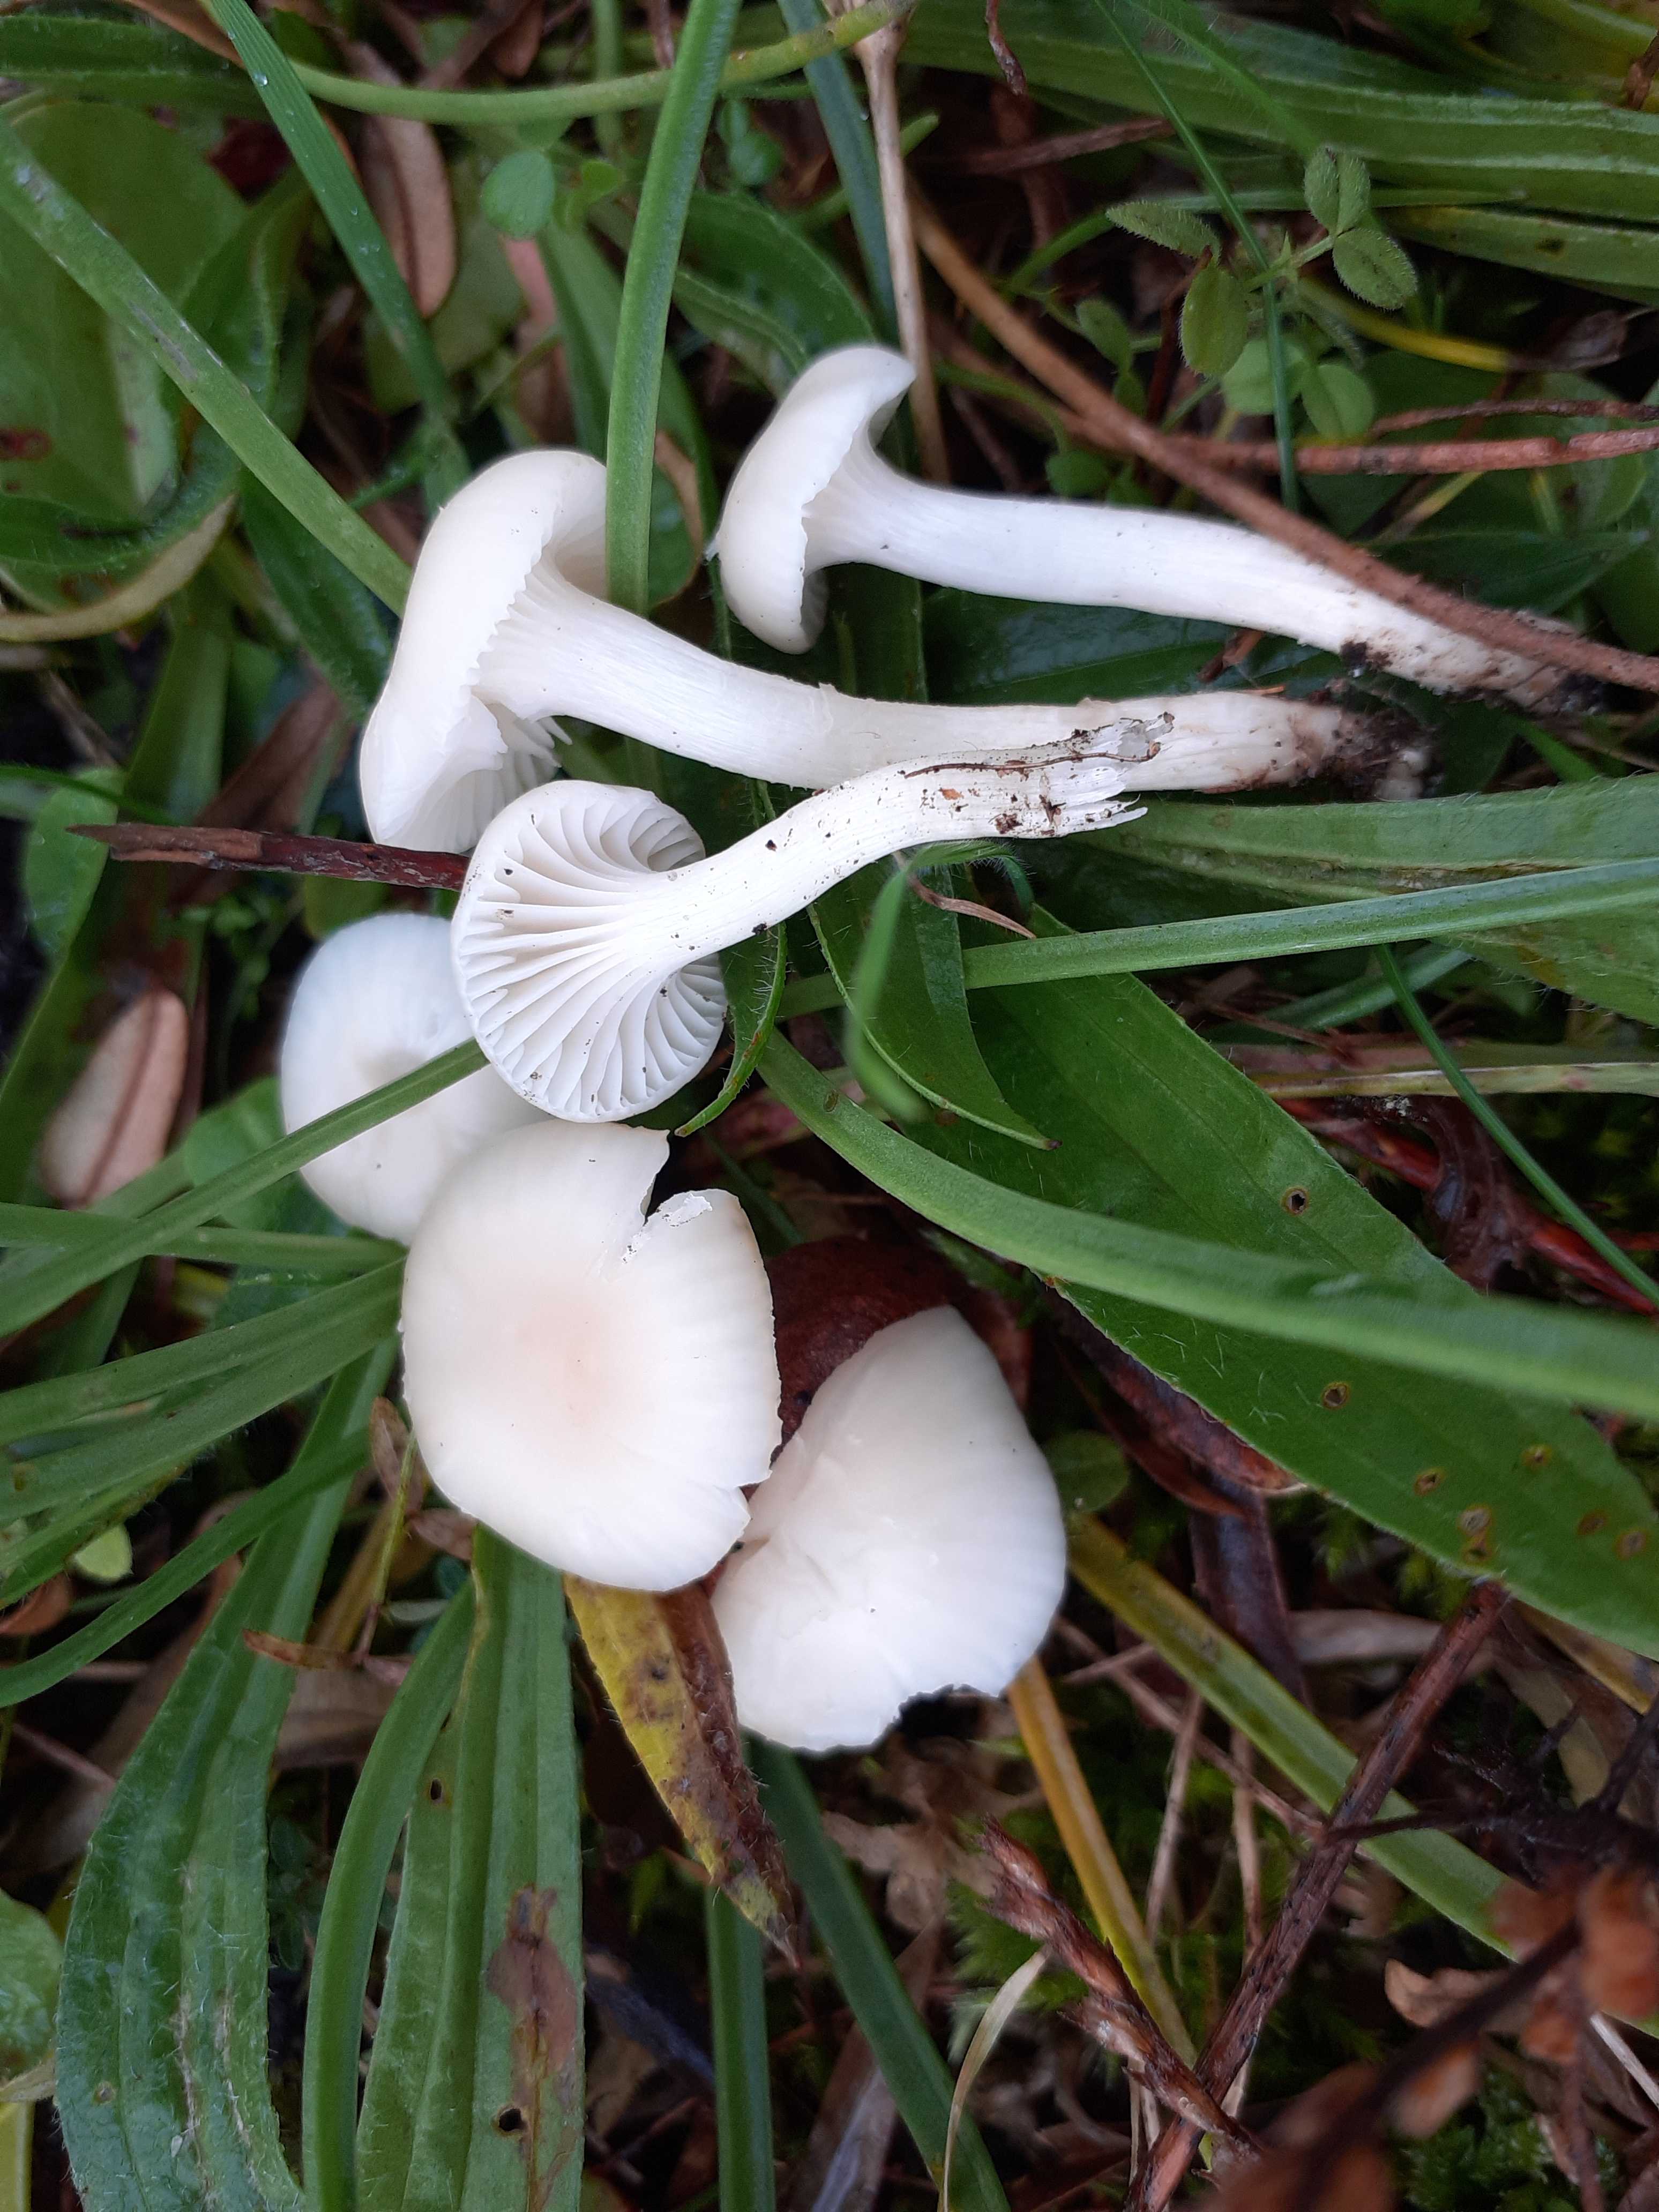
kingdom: Fungi
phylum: Basidiomycota
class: Agaricomycetes
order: Agaricales
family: Hygrophoraceae
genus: Cuphophyllus
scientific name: Cuphophyllus virgineus
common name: snehvid vokshat
